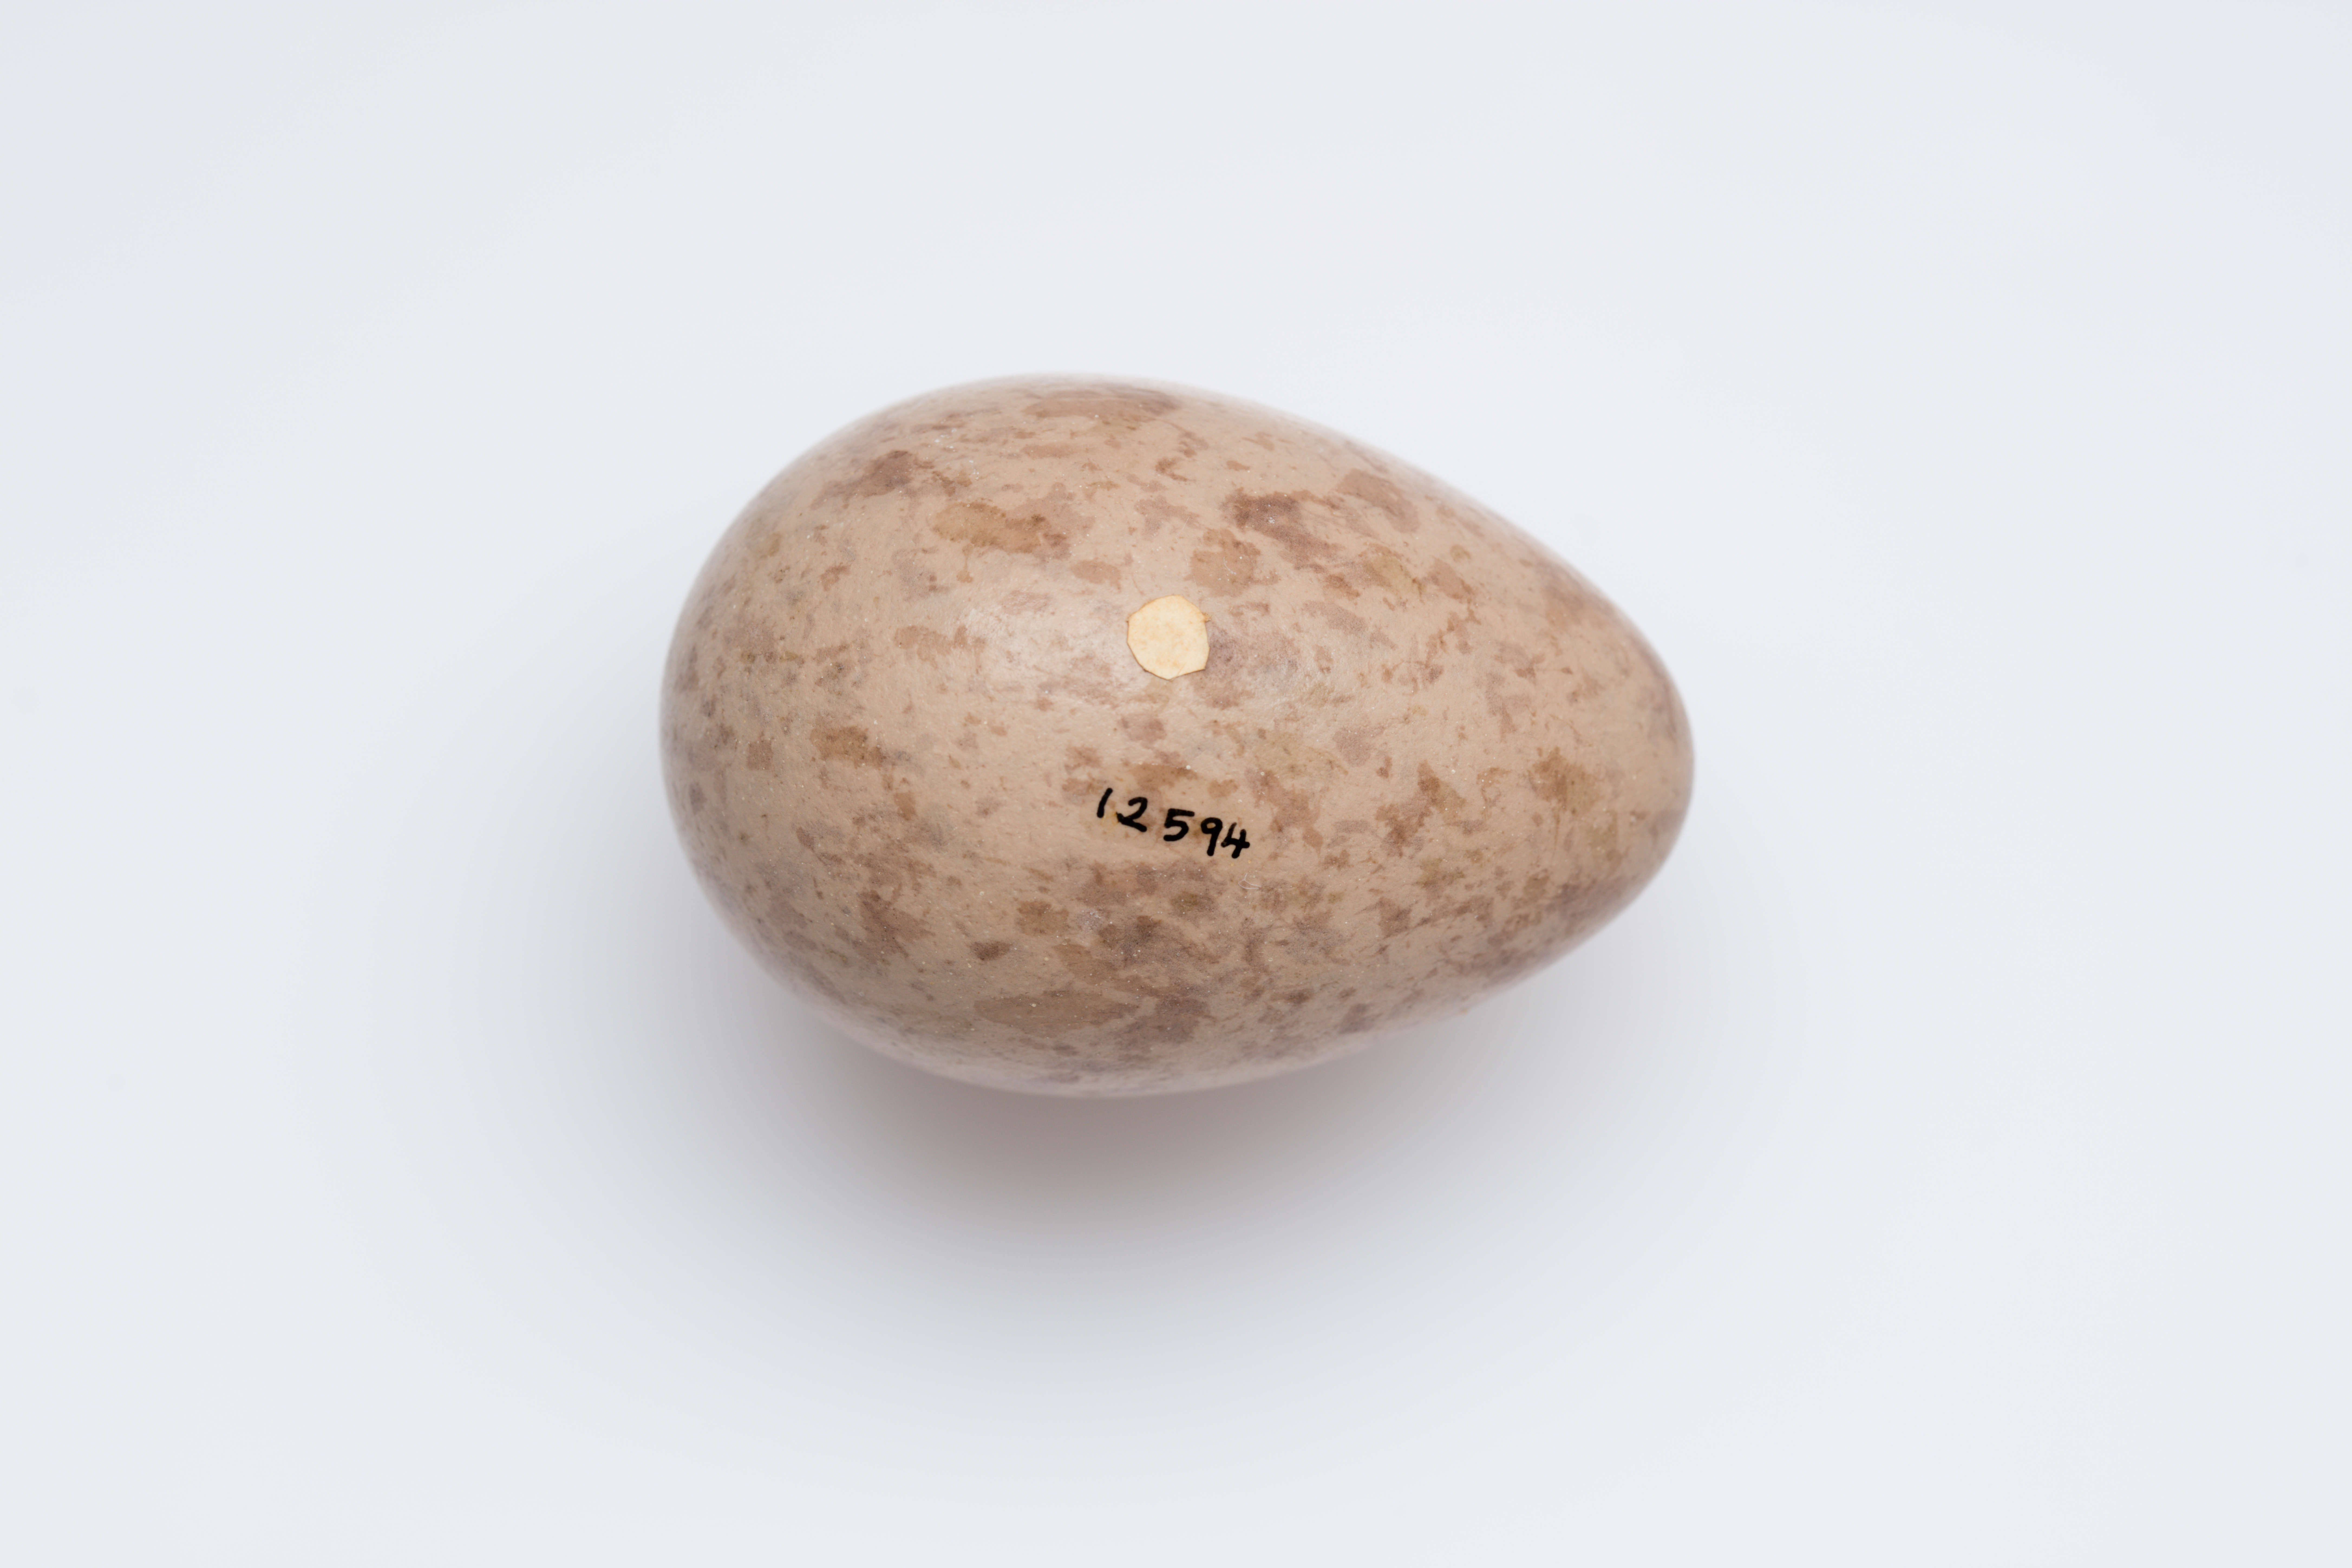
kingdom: Animalia
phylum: Chordata
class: Aves
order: Passeriformes
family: Cracticidae
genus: Strepera
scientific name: Strepera versicolor
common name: Grey currawong
